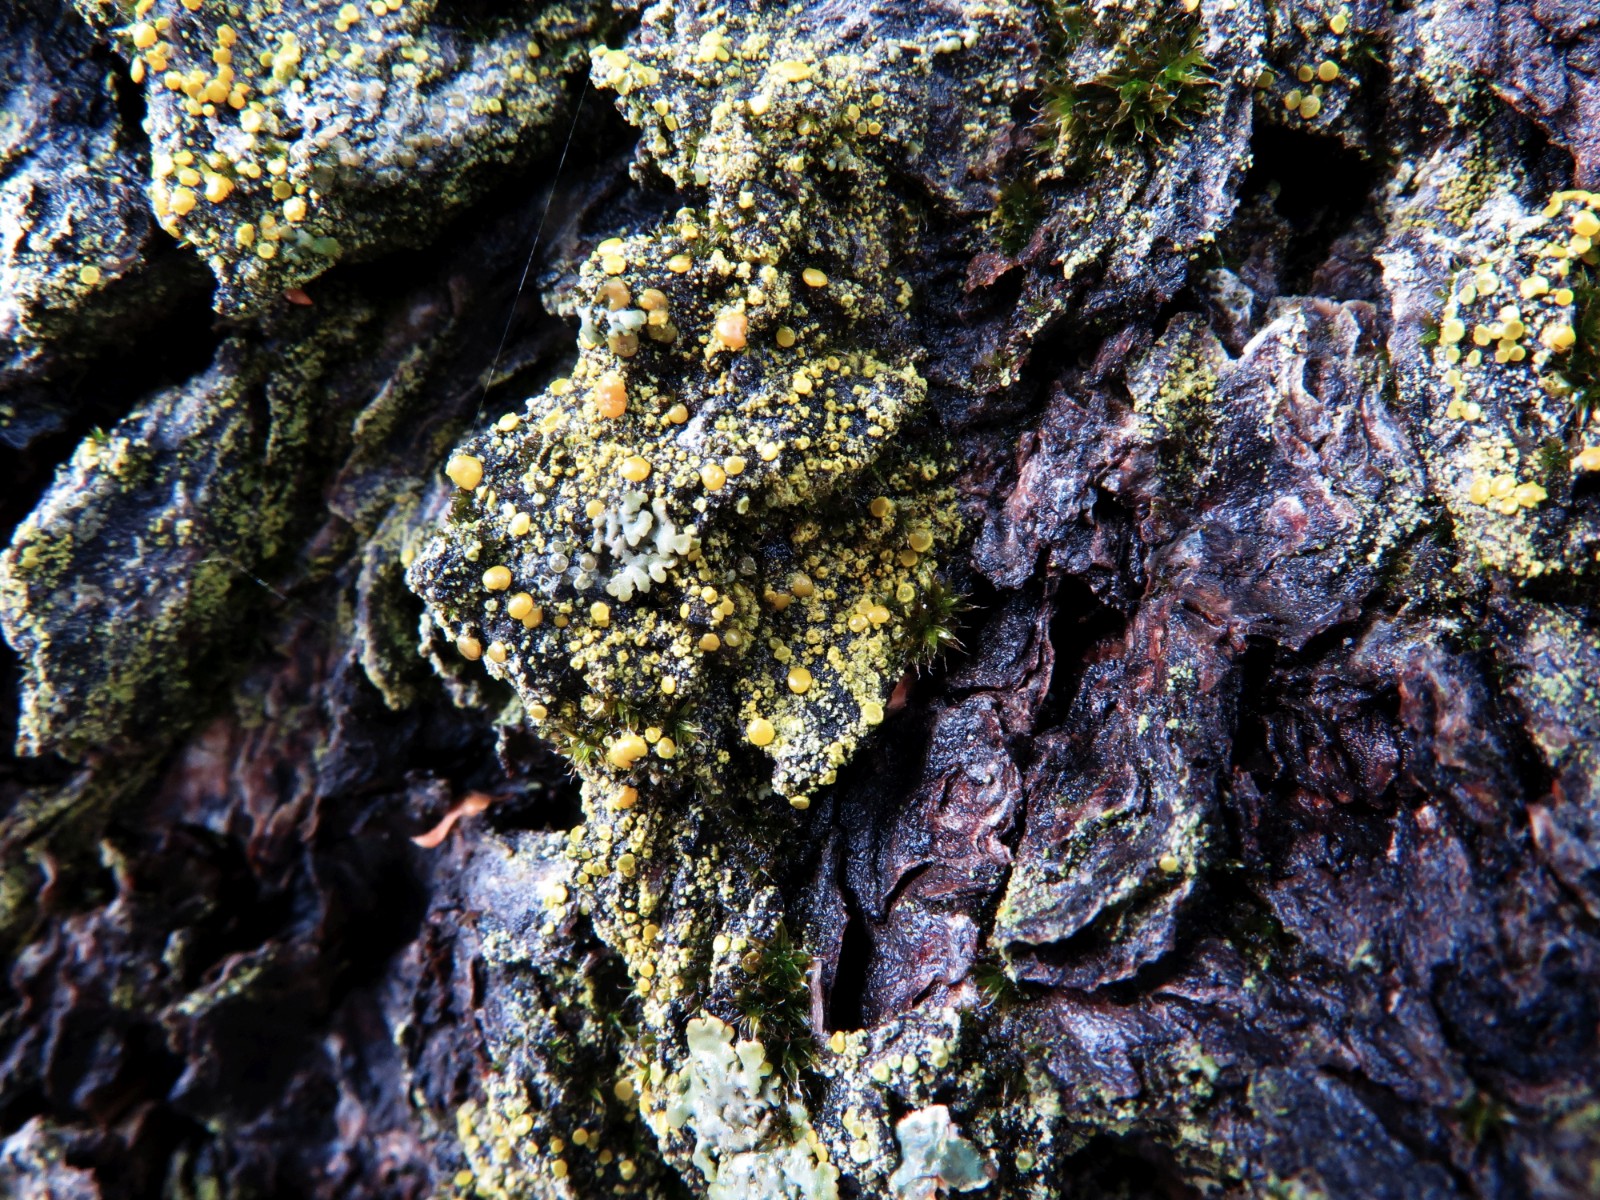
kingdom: Fungi
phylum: Ascomycota
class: Candelariomycetes
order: Candelariales
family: Candelariaceae
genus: Candelariella
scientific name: Candelariella aurella
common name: liden æggeblommelav
